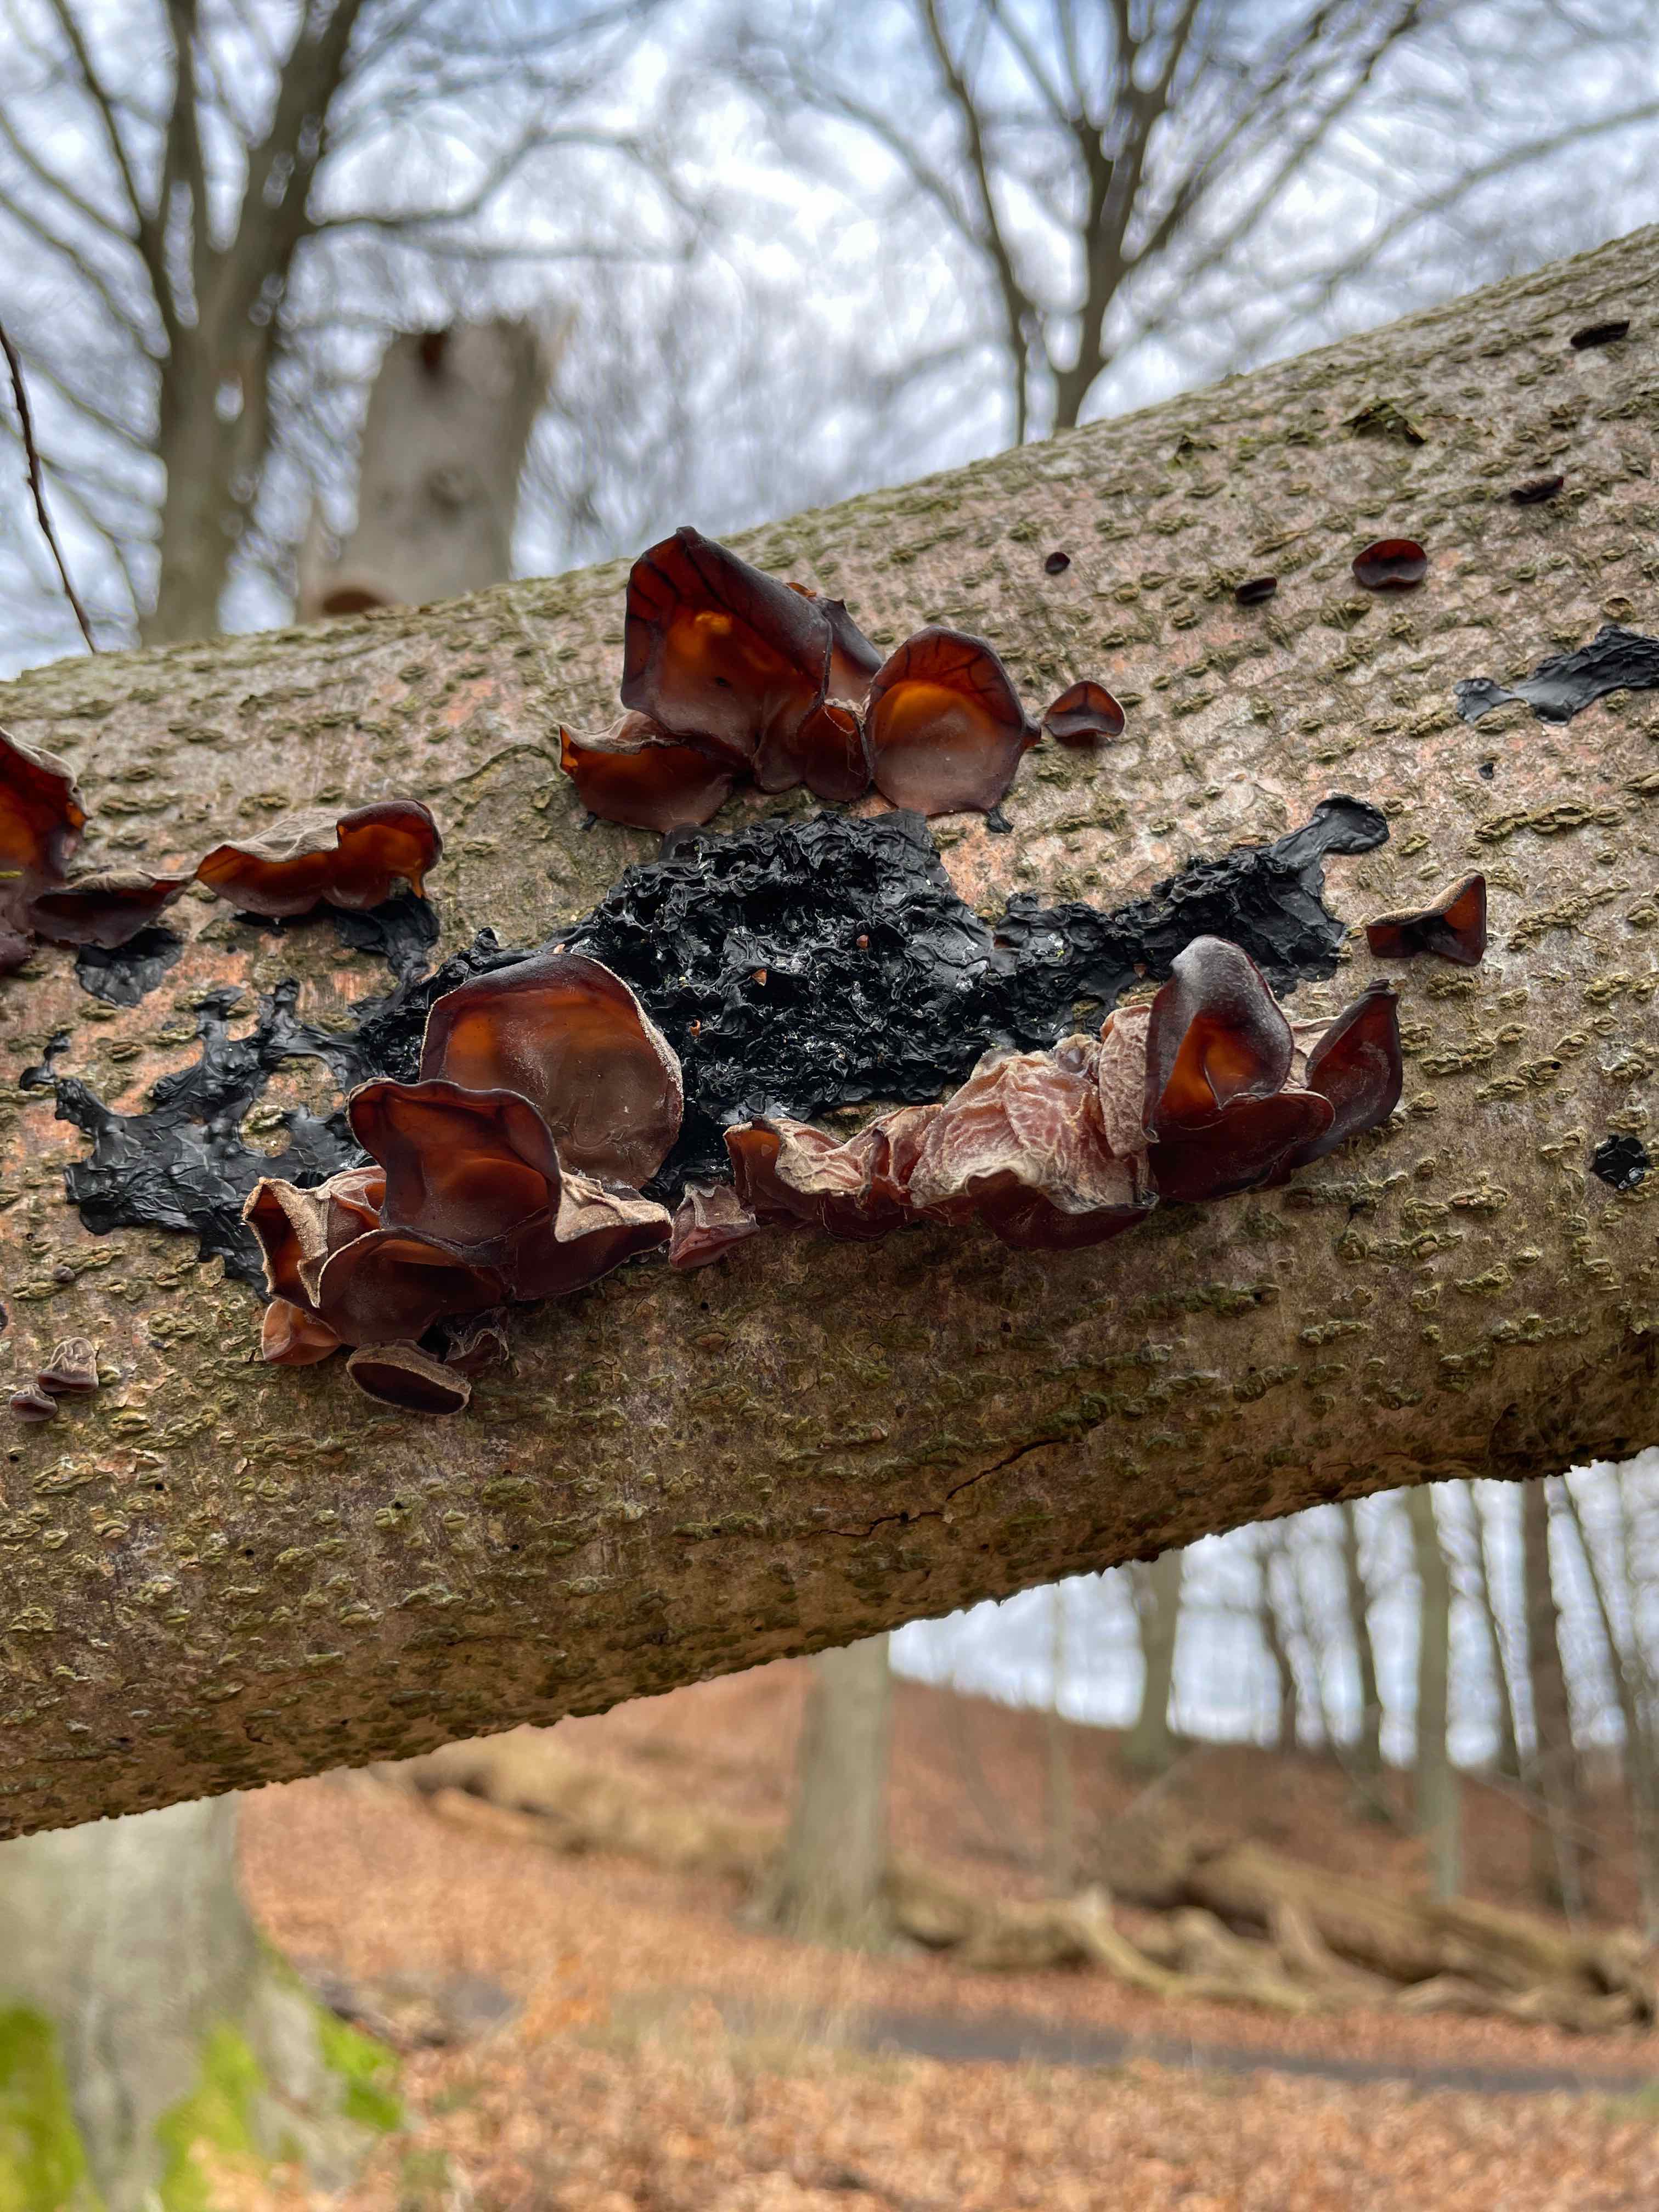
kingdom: Fungi
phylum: Basidiomycota
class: Agaricomycetes
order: Auriculariales
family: Auriculariaceae
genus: Auricularia
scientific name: Auricularia auricula-judae
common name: almindelig judasøre
